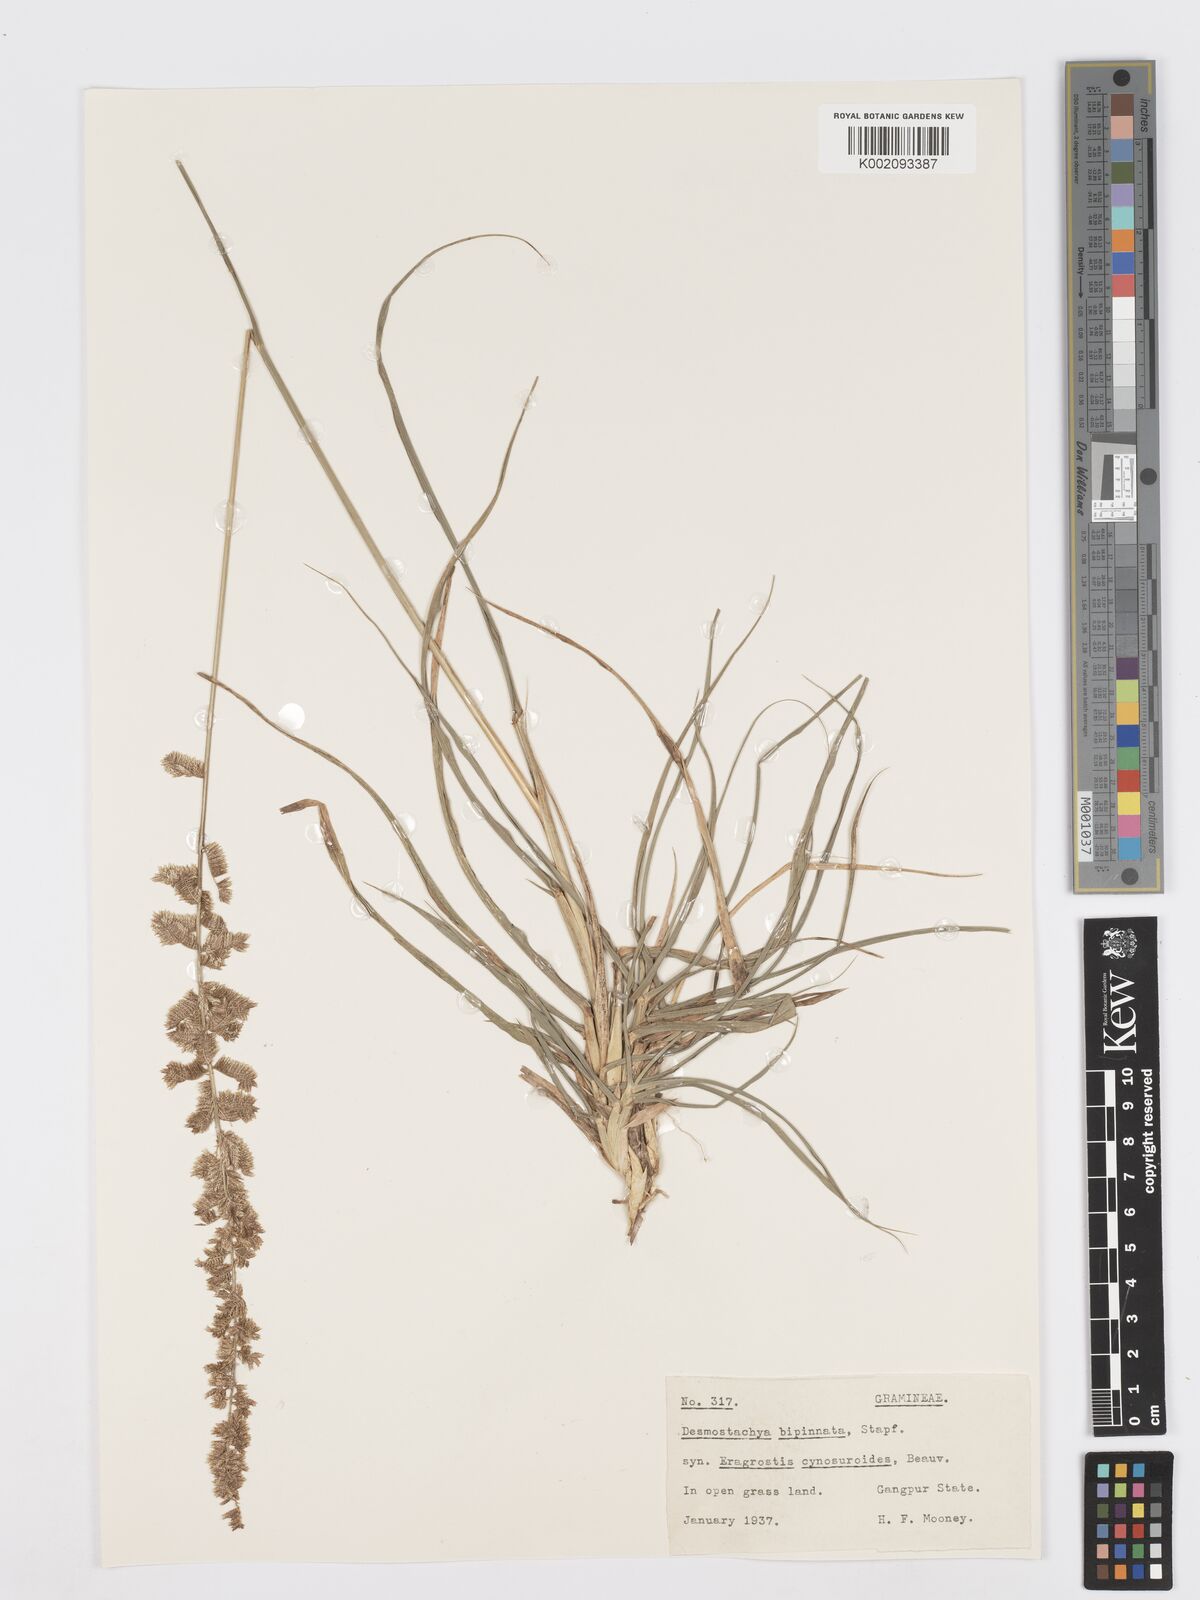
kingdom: Plantae
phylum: Tracheophyta
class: Liliopsida
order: Poales
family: Poaceae
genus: Desmostachya
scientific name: Desmostachya bipinnata
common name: Crowfoot grass
